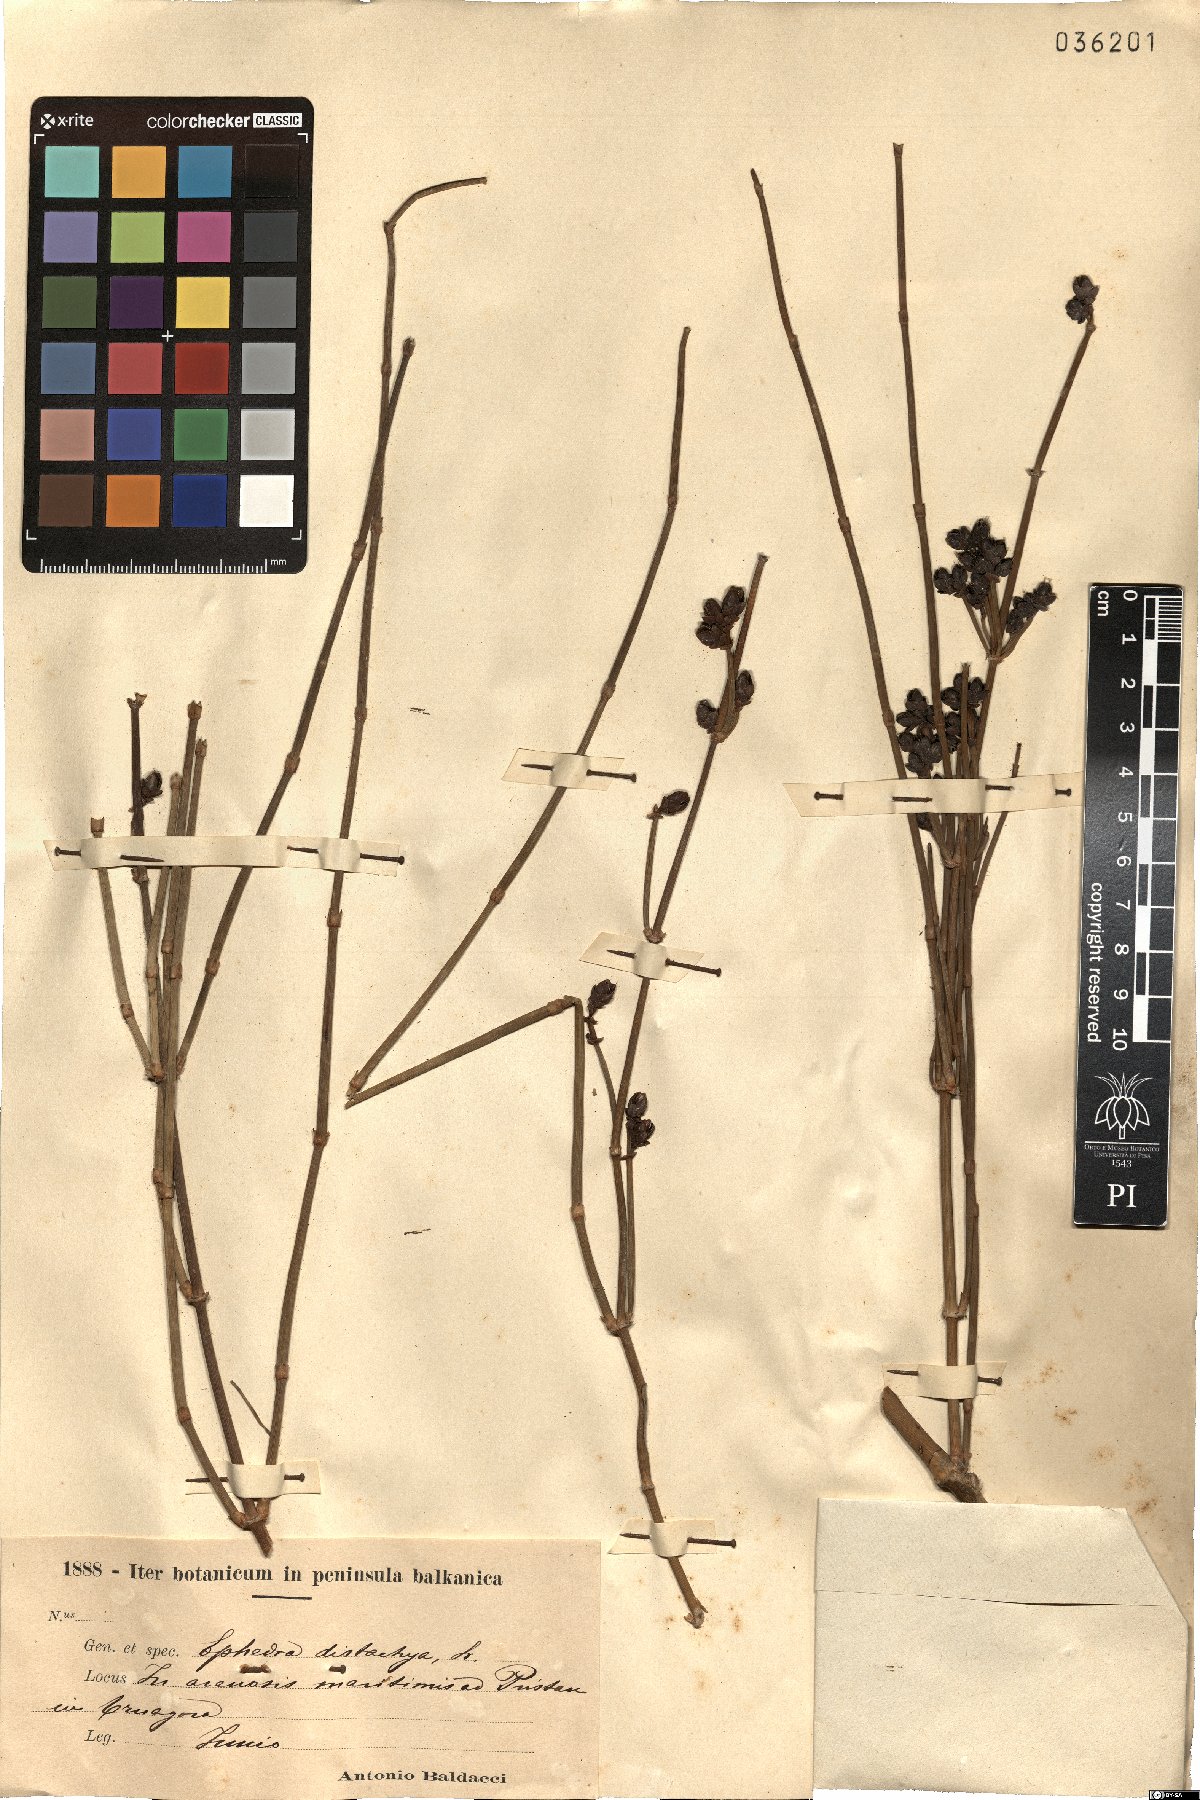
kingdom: Plantae
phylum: Tracheophyta
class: Gnetopsida
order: Ephedrales
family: Ephedraceae
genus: Ephedra
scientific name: Ephedra distachya
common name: Sea grape
